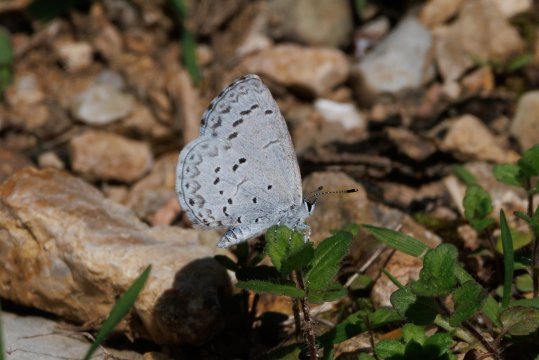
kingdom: Animalia
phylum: Arthropoda
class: Insecta
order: Lepidoptera
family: Lycaenidae
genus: Celastrina
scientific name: Celastrina ladon
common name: Spring Azure
